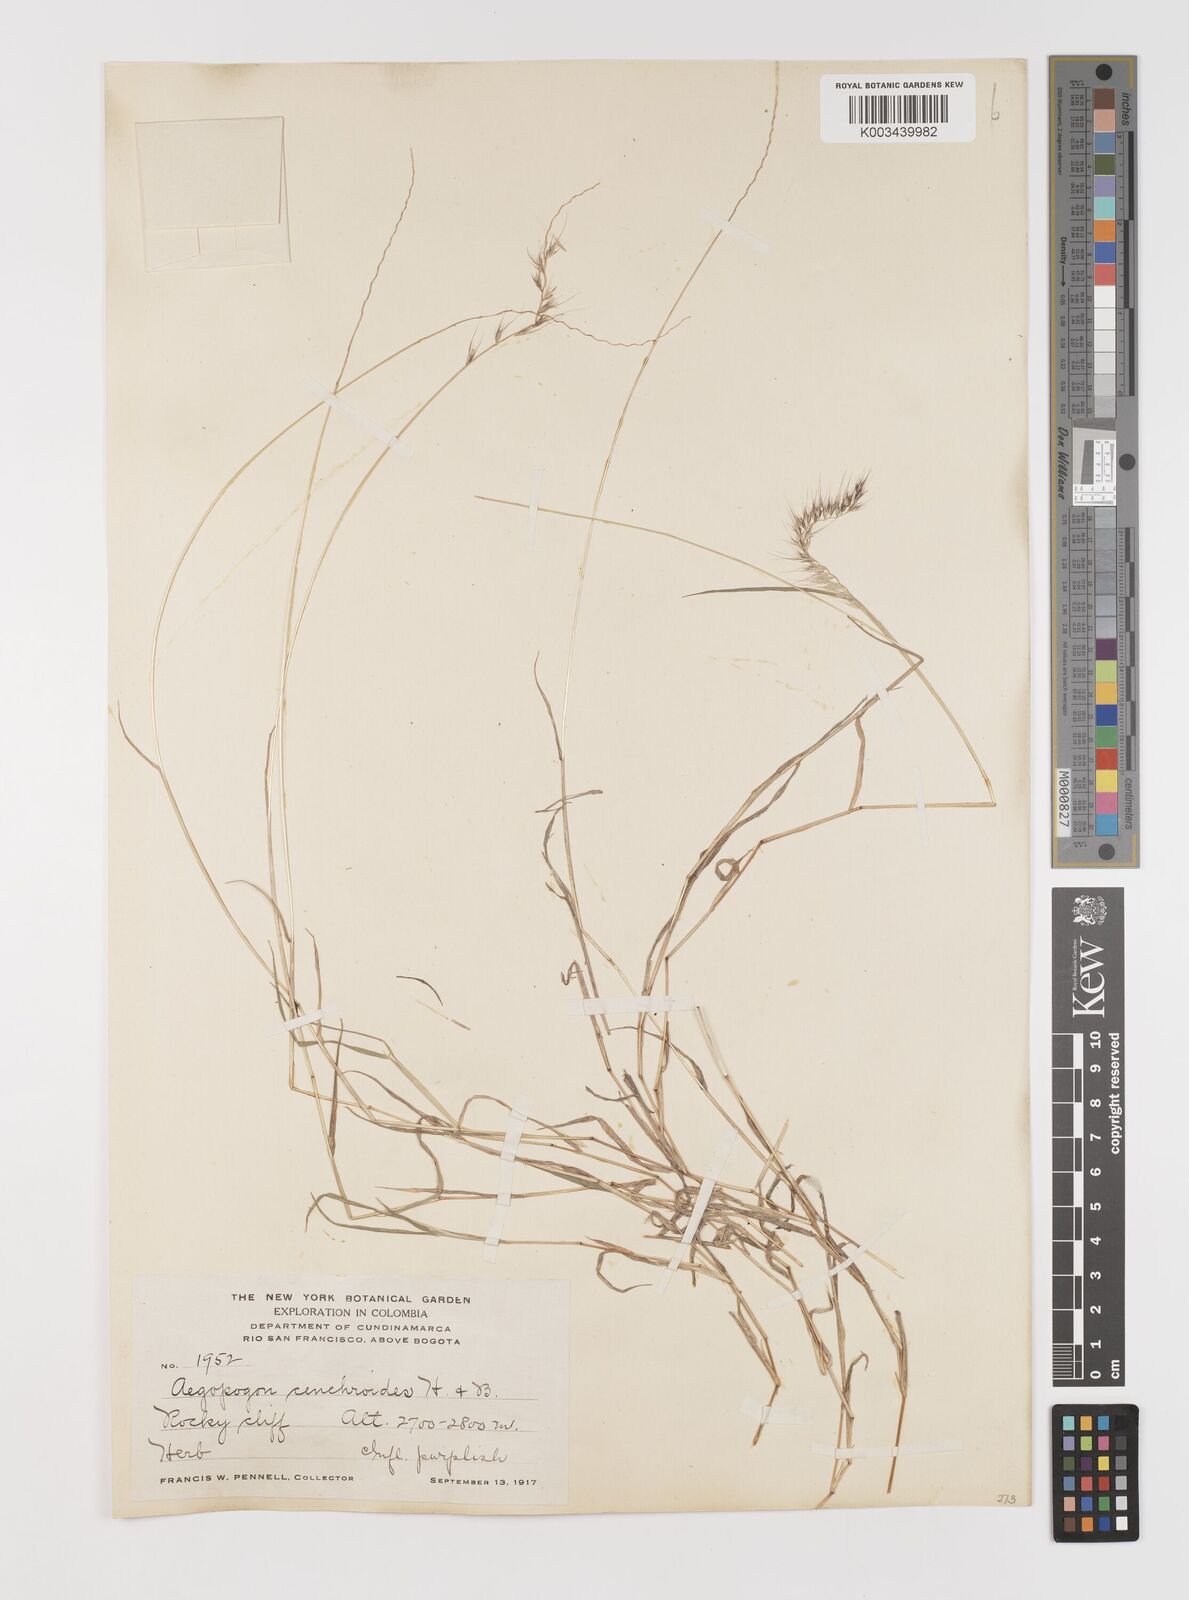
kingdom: Plantae
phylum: Tracheophyta
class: Liliopsida
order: Poales
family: Poaceae
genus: Muhlenbergia
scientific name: Muhlenbergia cenchroides
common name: Relaxgrass
